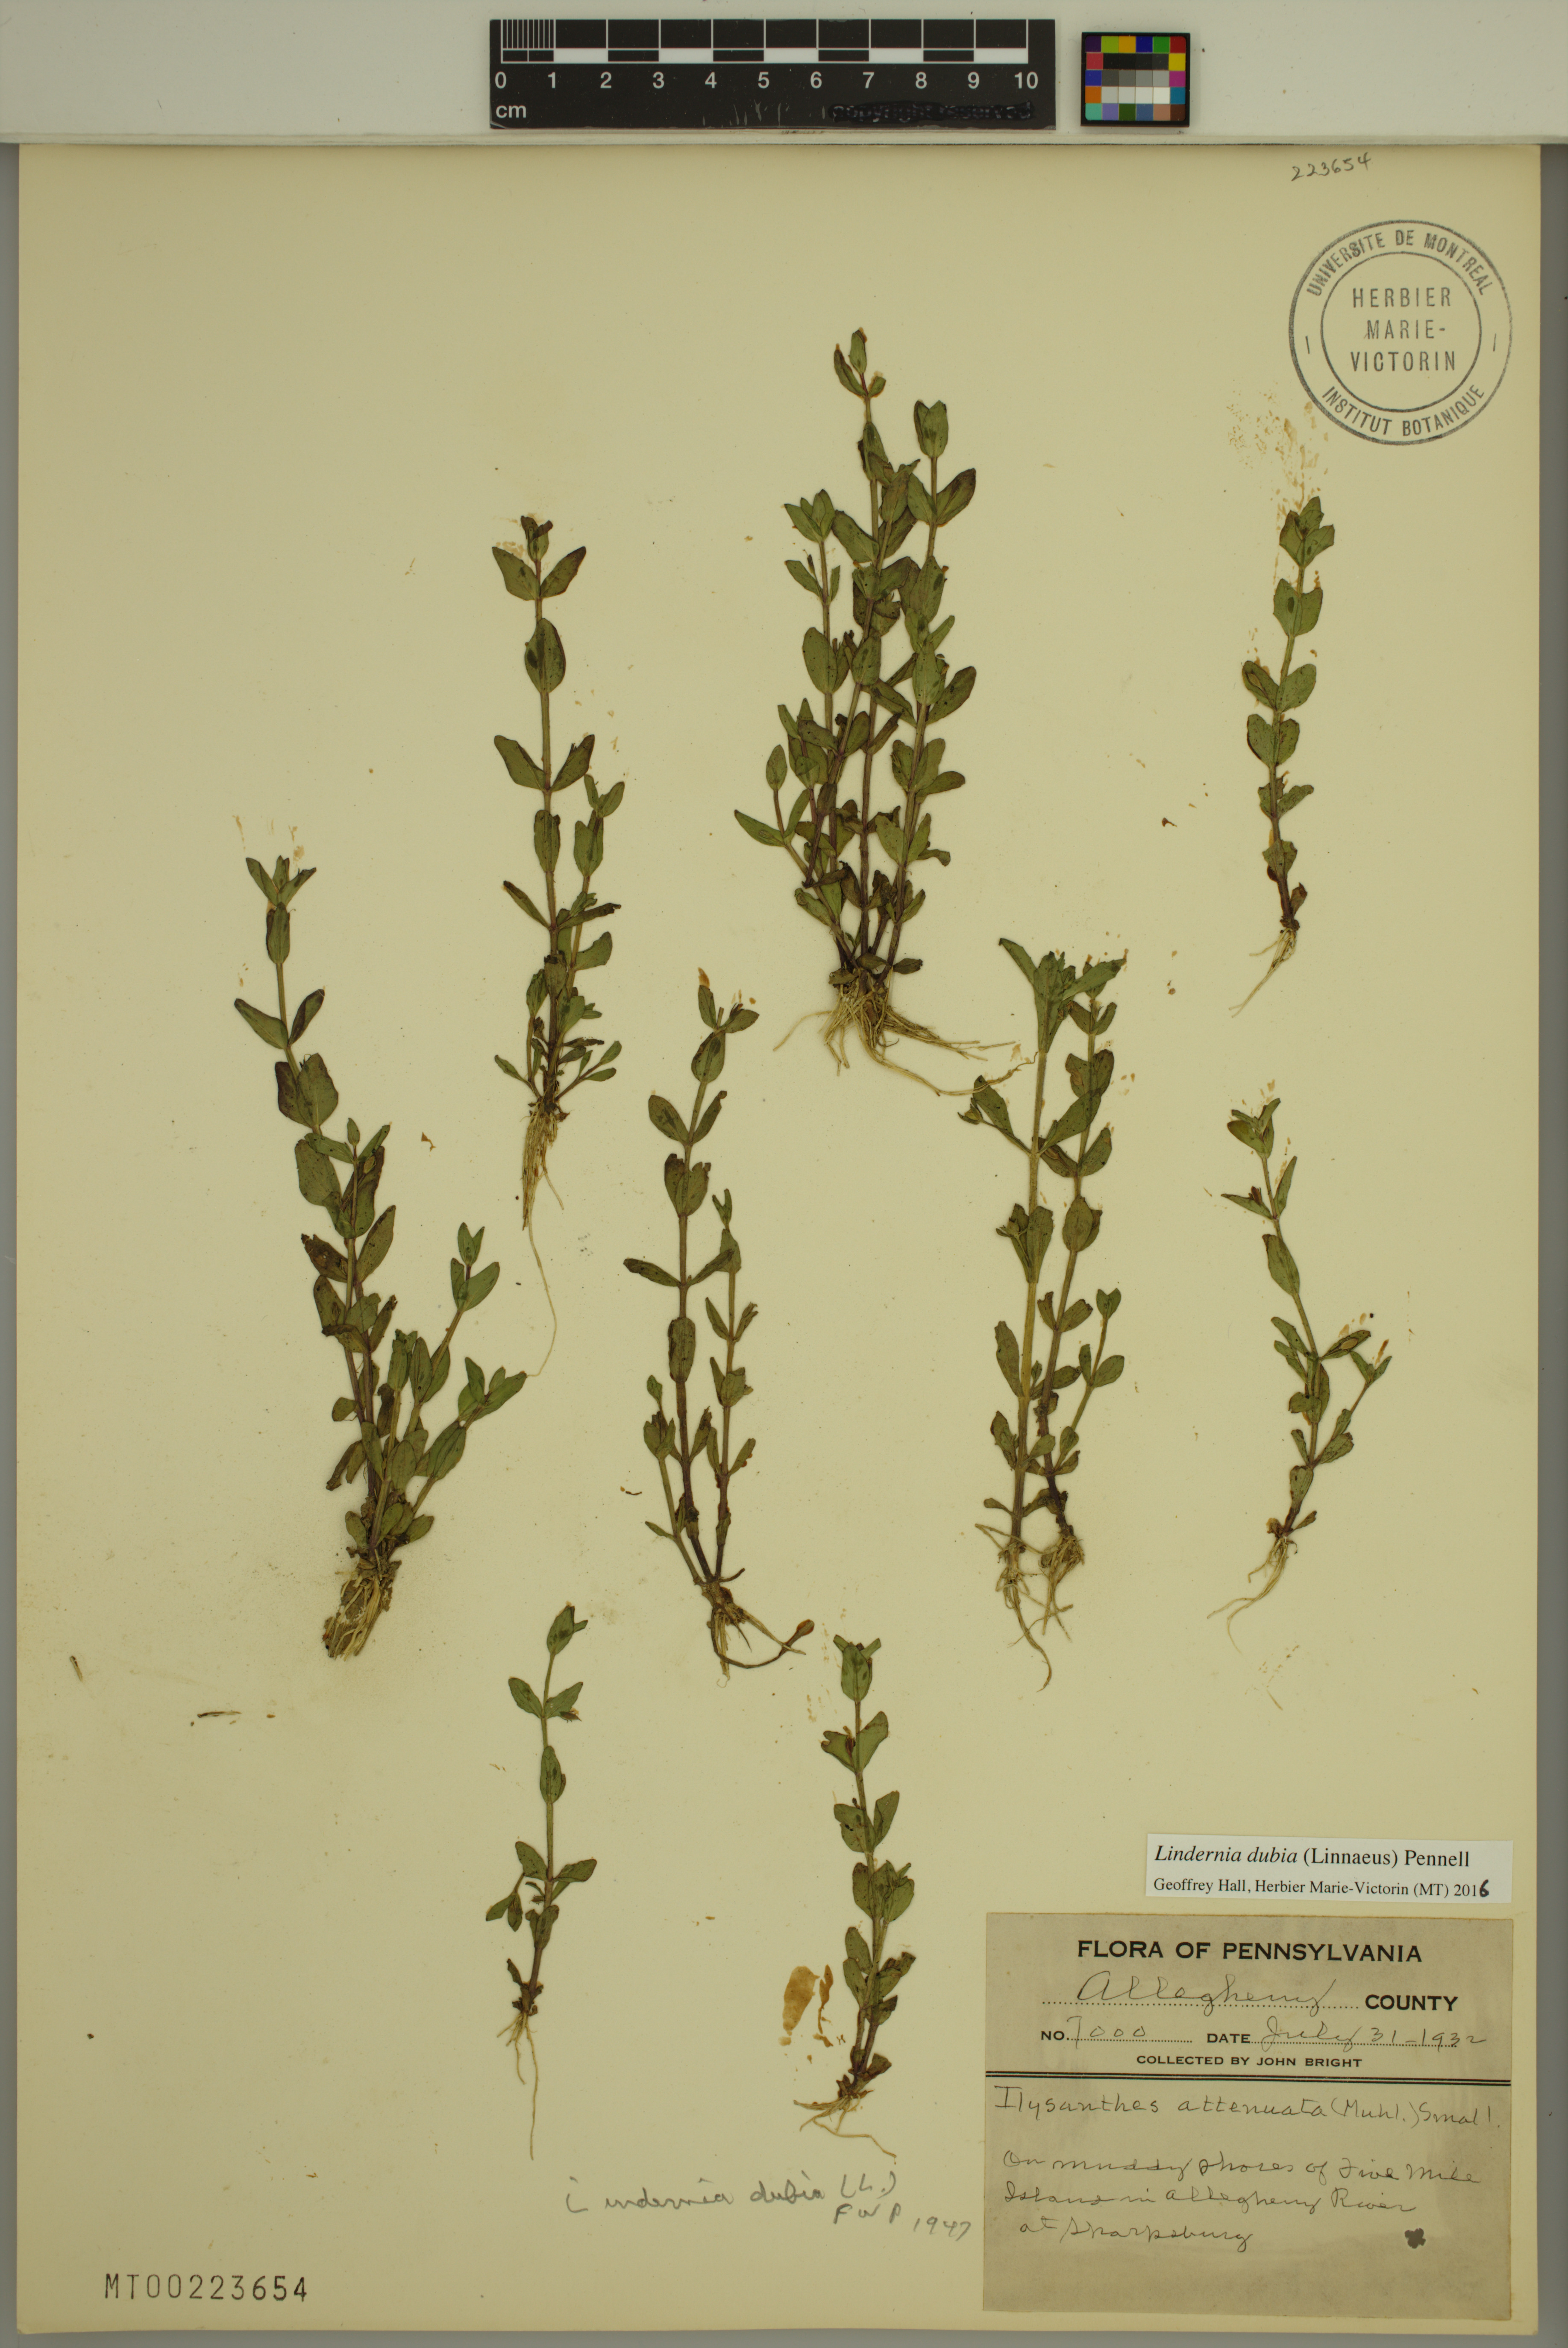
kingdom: Plantae
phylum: Tracheophyta
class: Magnoliopsida
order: Lamiales
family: Linderniaceae
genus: Lindernia
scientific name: Lindernia dubia
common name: Annual false pimpernel
